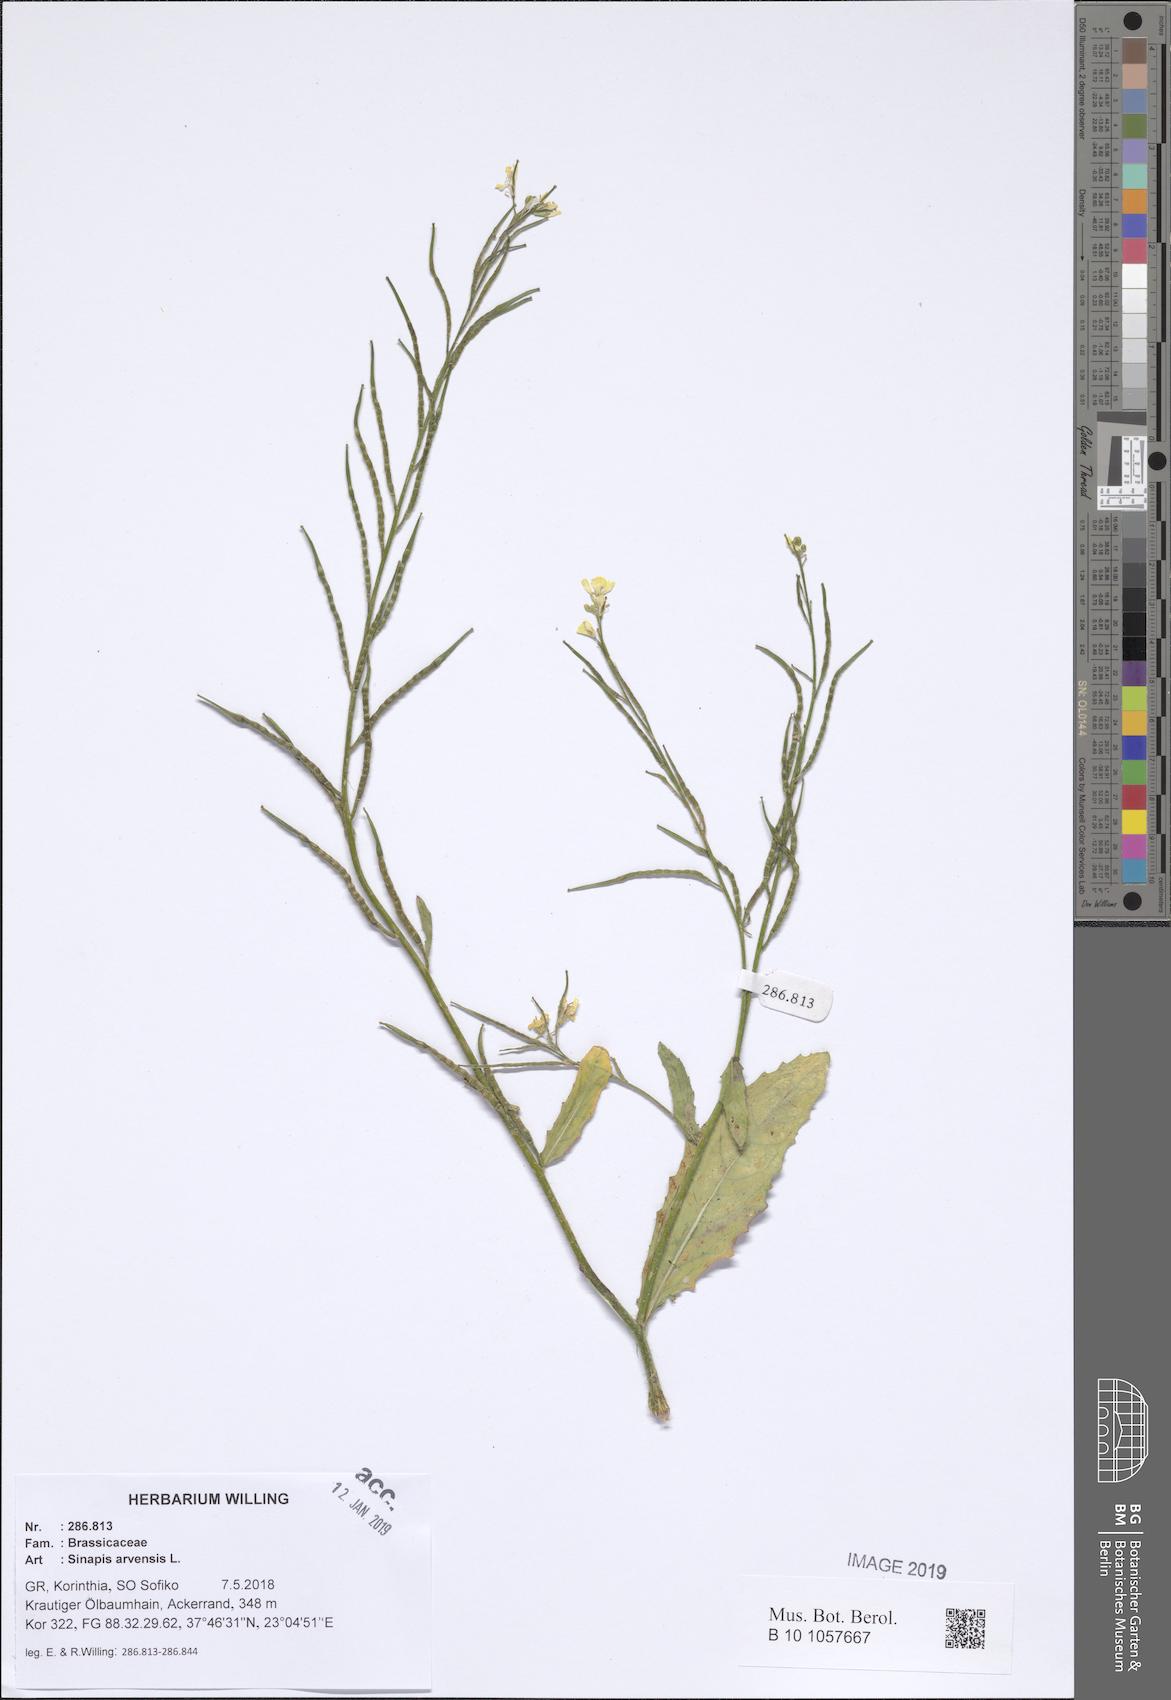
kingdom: Plantae
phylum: Tracheophyta
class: Magnoliopsida
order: Brassicales
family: Brassicaceae
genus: Sinapis
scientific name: Sinapis arvensis
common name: Charlock
